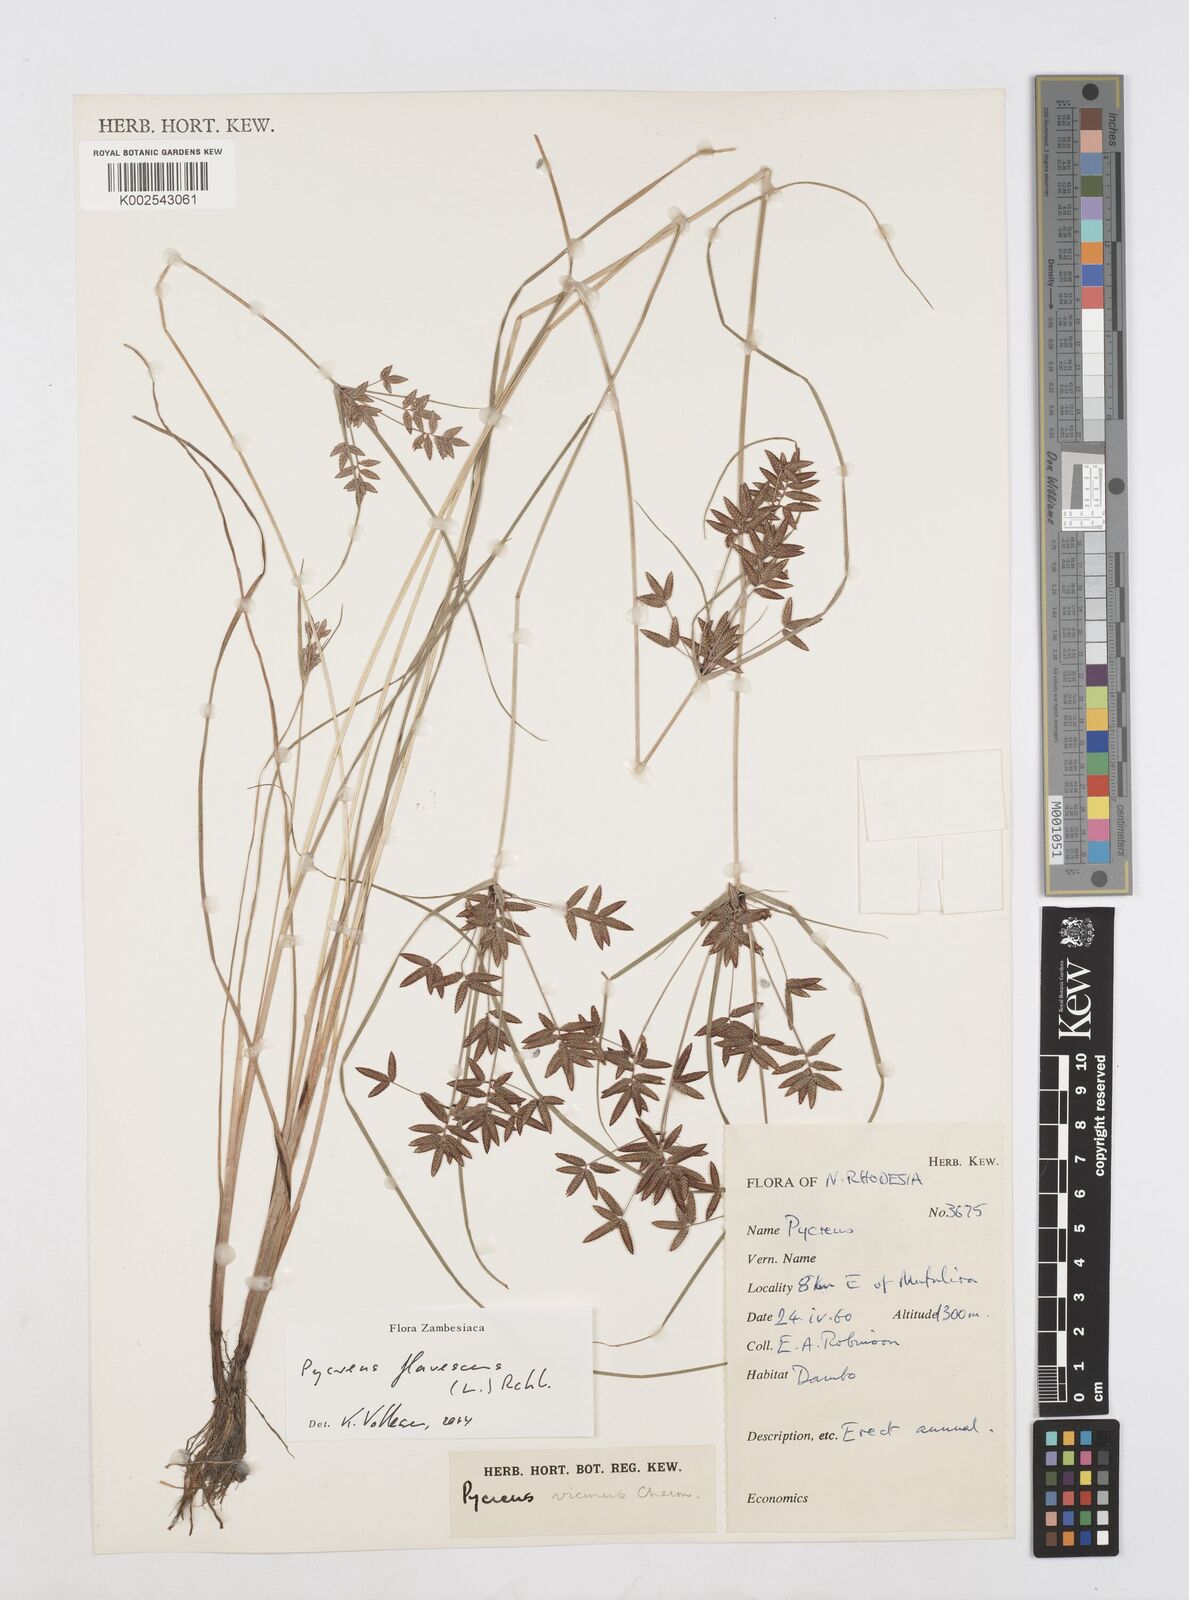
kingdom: Plantae
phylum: Tracheophyta
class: Liliopsida
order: Poales
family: Cyperaceae
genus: Cyperus
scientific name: Cyperus flavescens
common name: Yellow galingale
